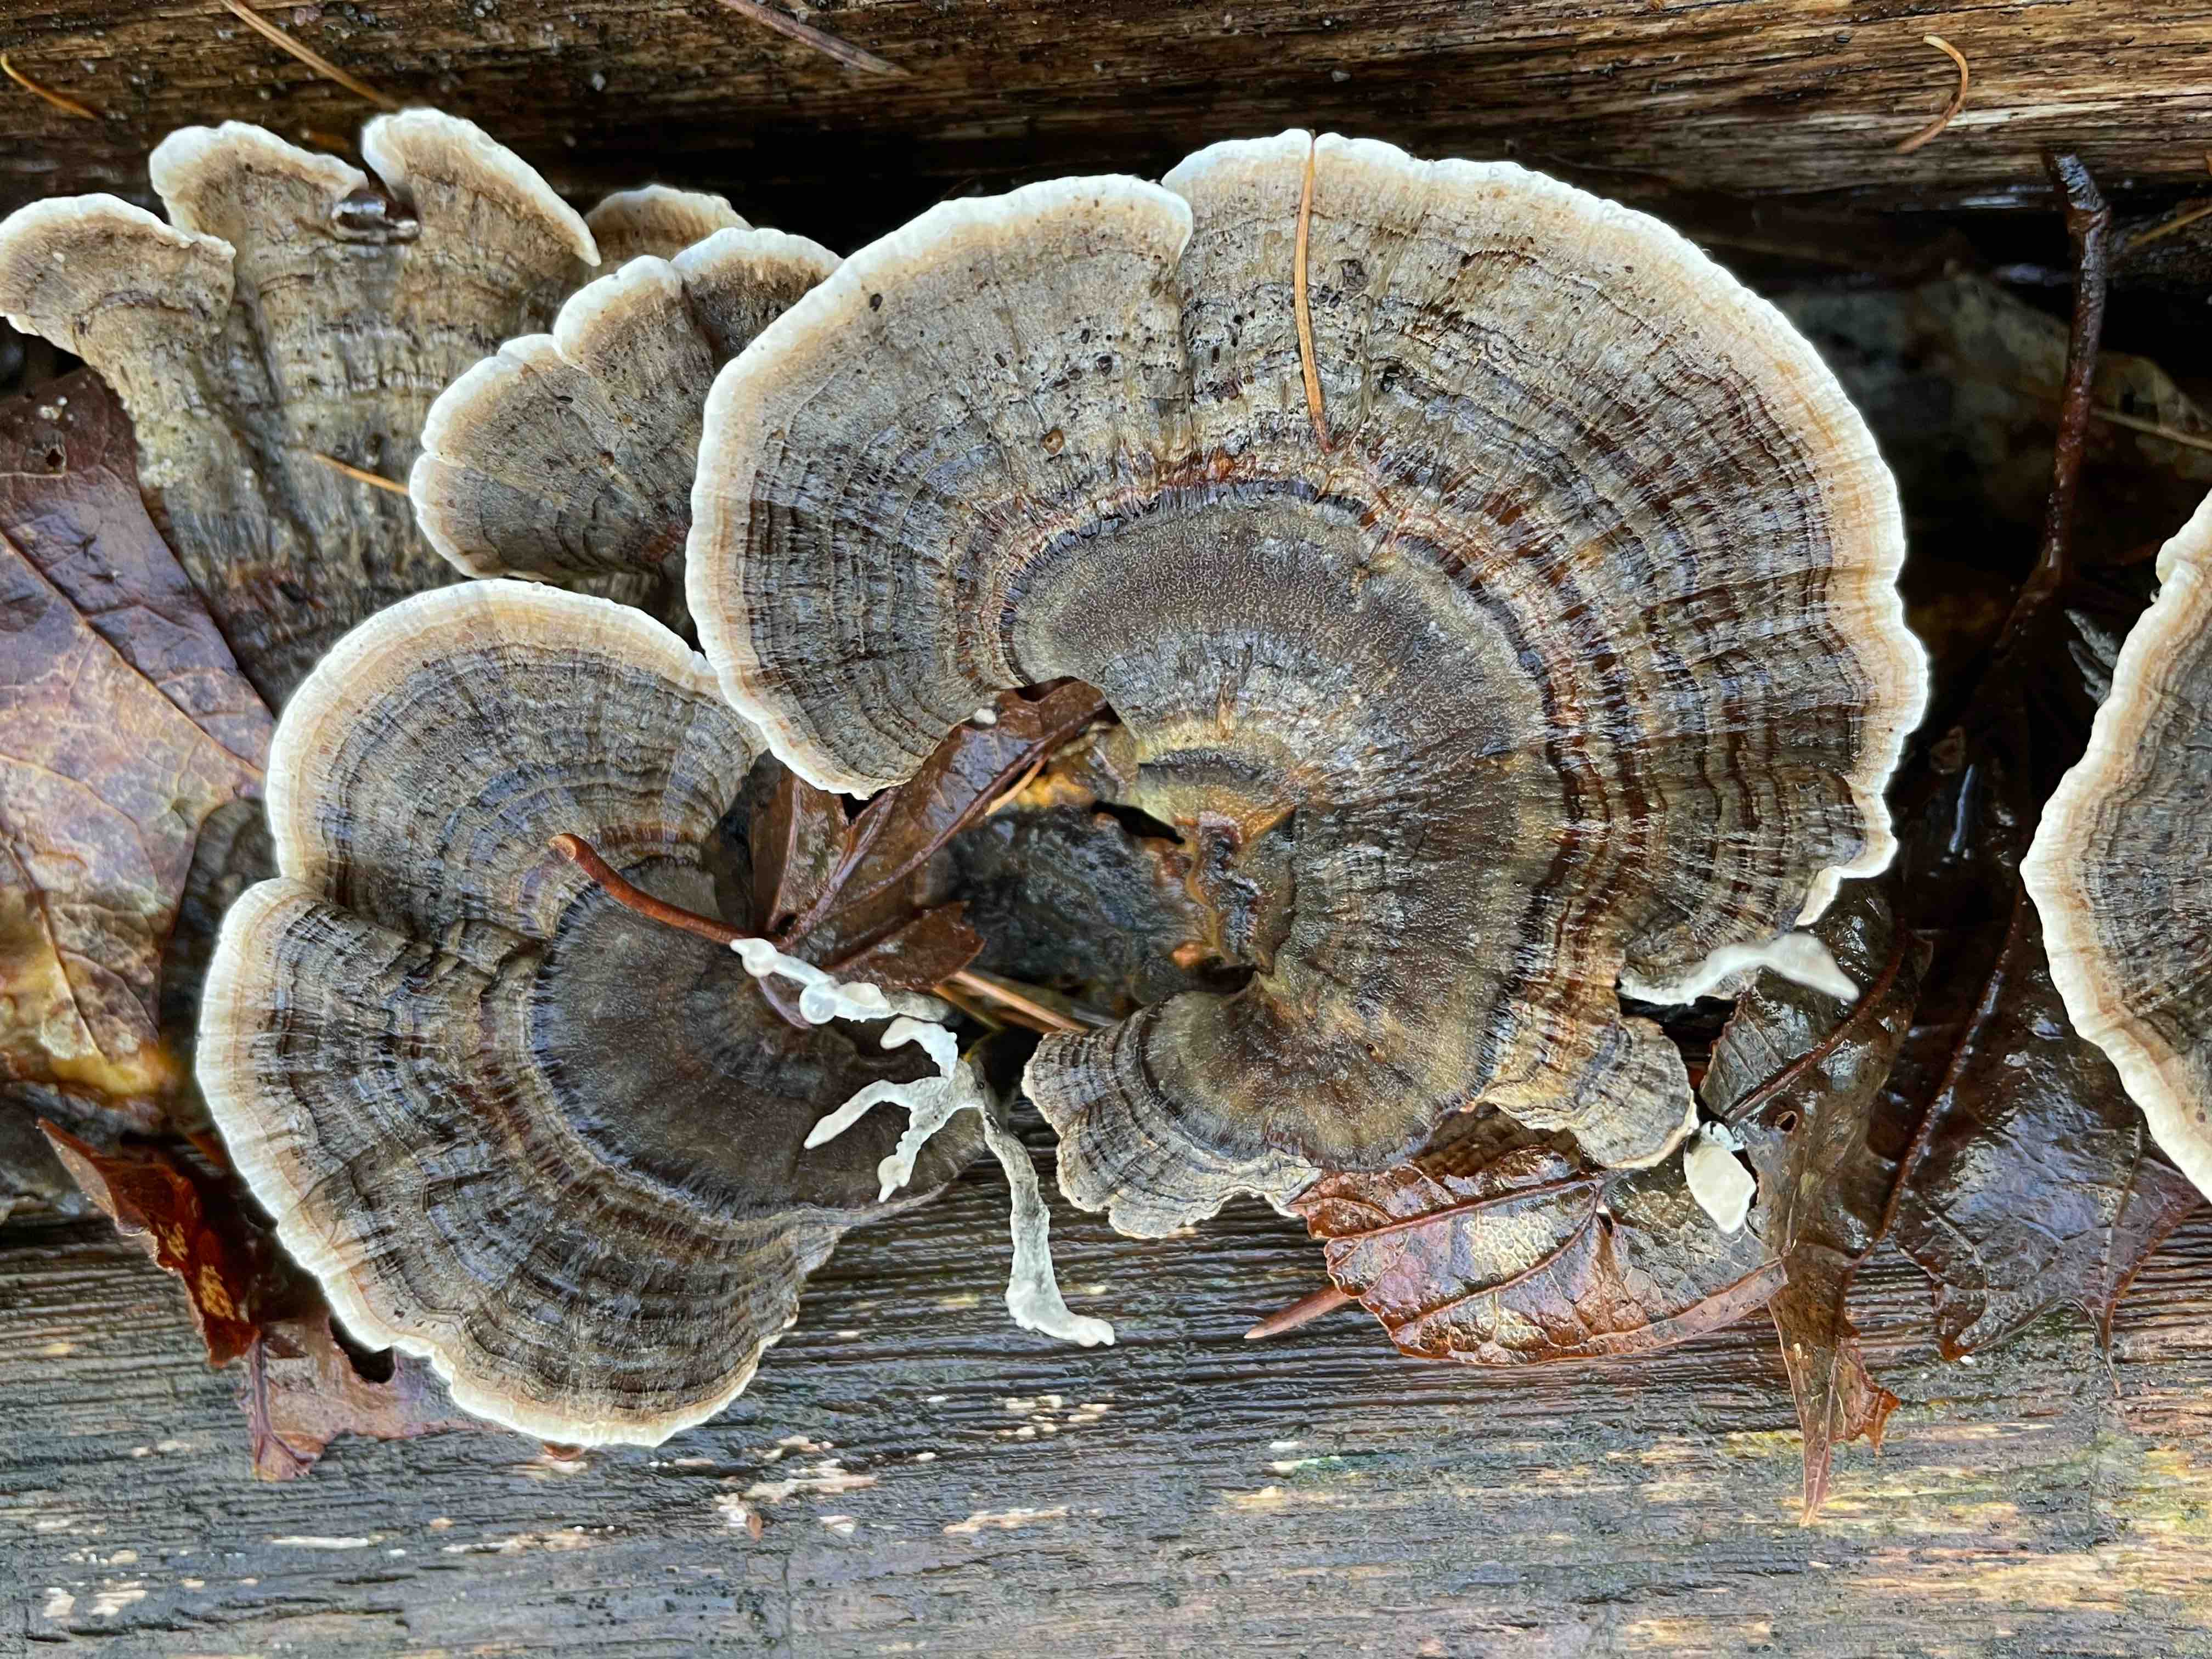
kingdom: Fungi
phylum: Basidiomycota
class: Agaricomycetes
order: Polyporales
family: Polyporaceae
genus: Trametes
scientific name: Trametes versicolor
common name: broget læderporesvamp
